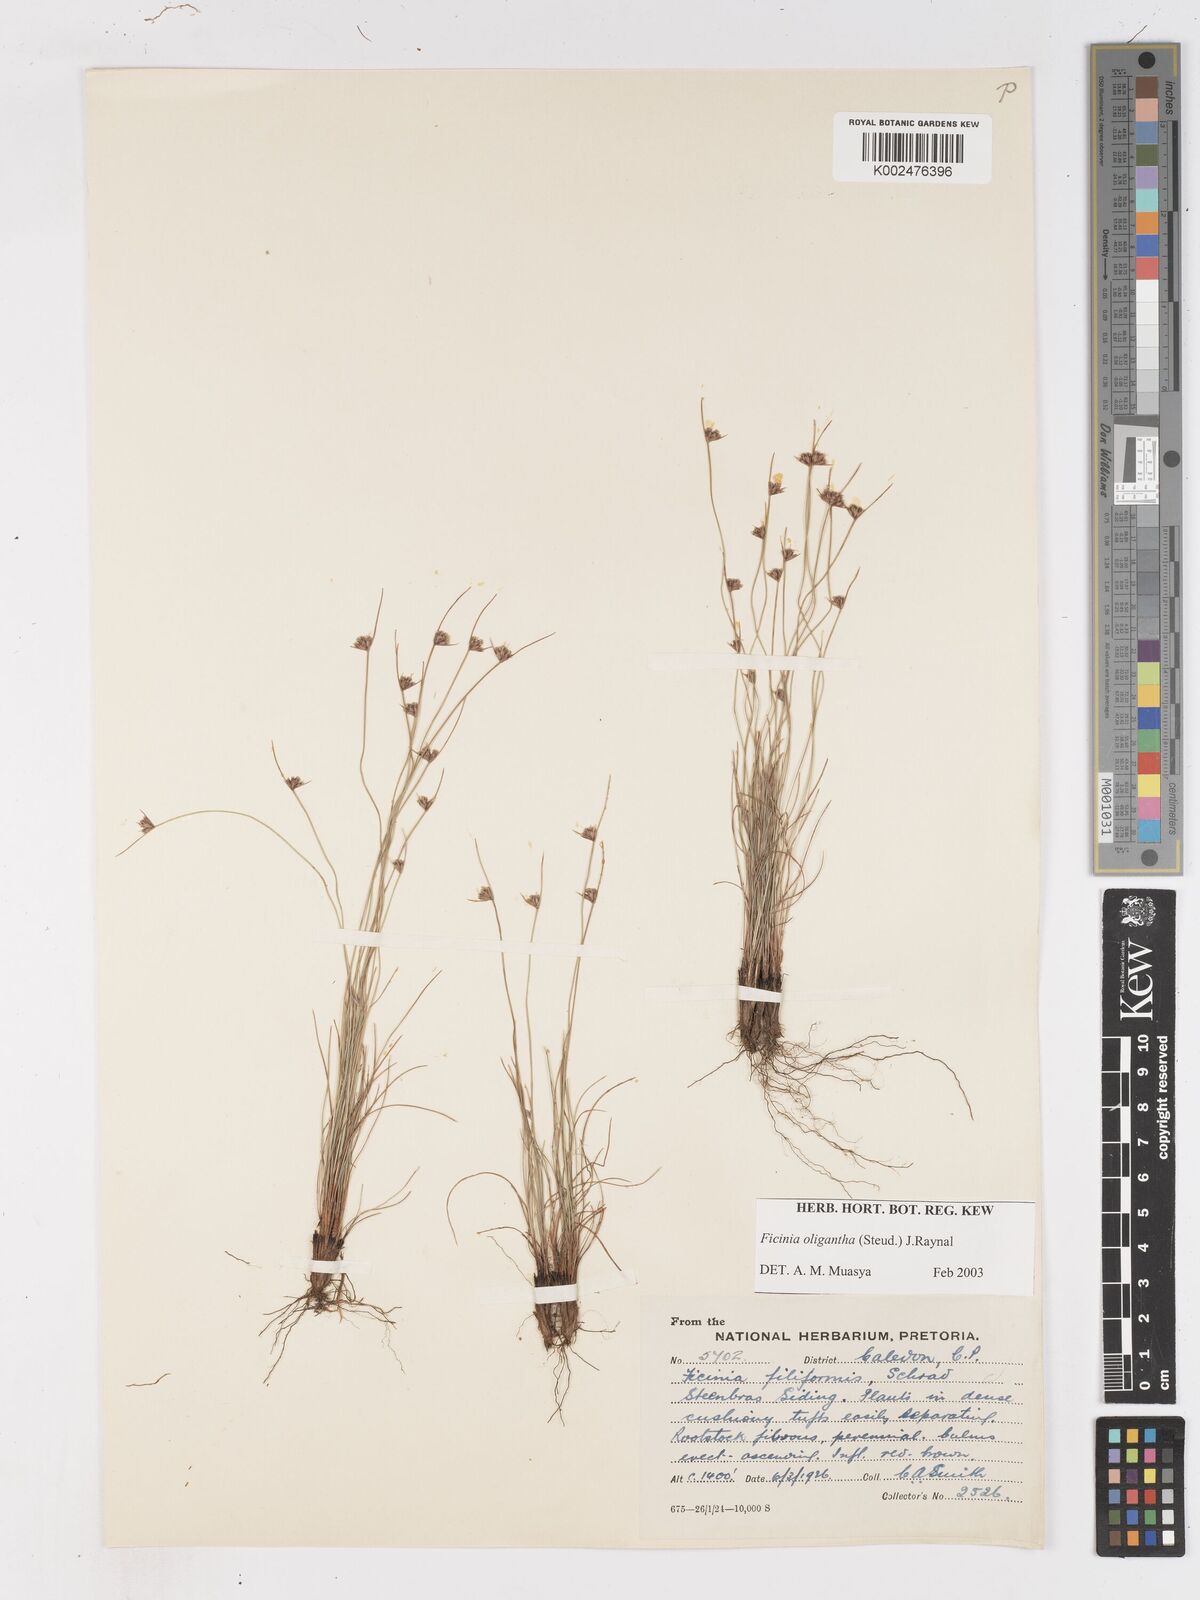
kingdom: Plantae
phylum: Tracheophyta
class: Liliopsida
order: Poales
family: Cyperaceae
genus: Ficinia
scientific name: Ficinia oligantha
